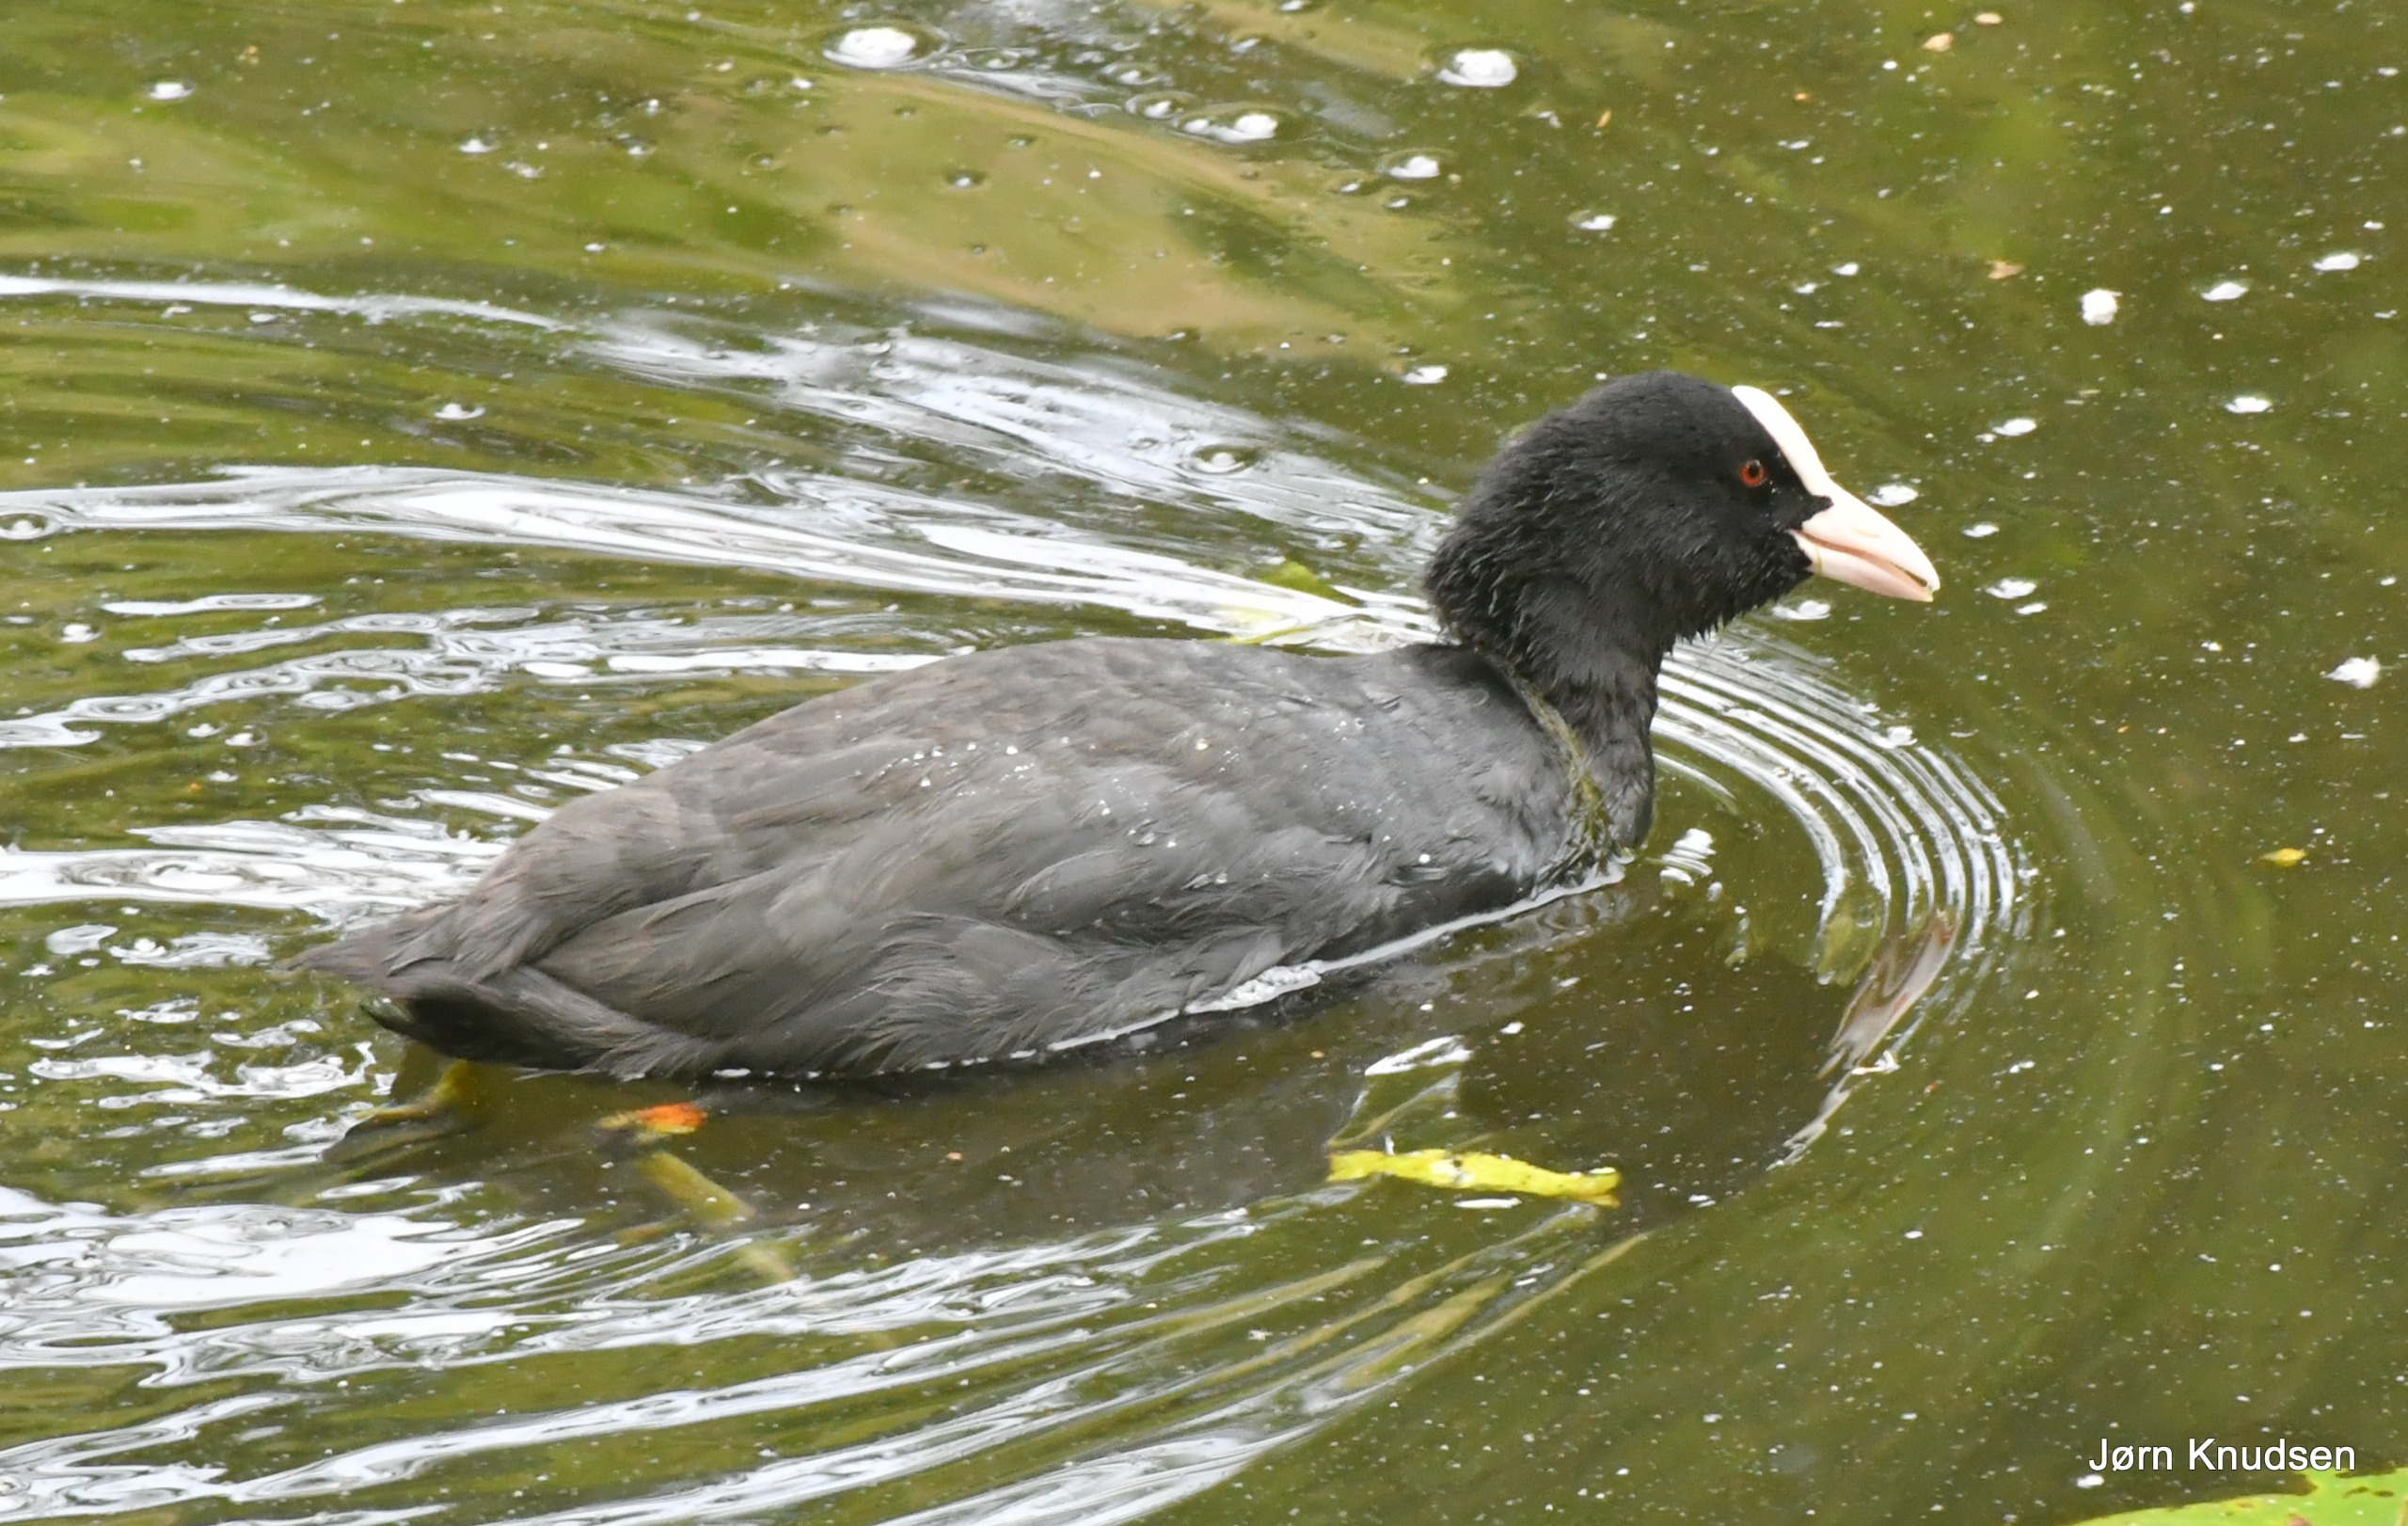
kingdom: Animalia
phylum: Chordata
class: Aves
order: Gruiformes
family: Rallidae
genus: Fulica
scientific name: Fulica atra
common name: Blishøne
